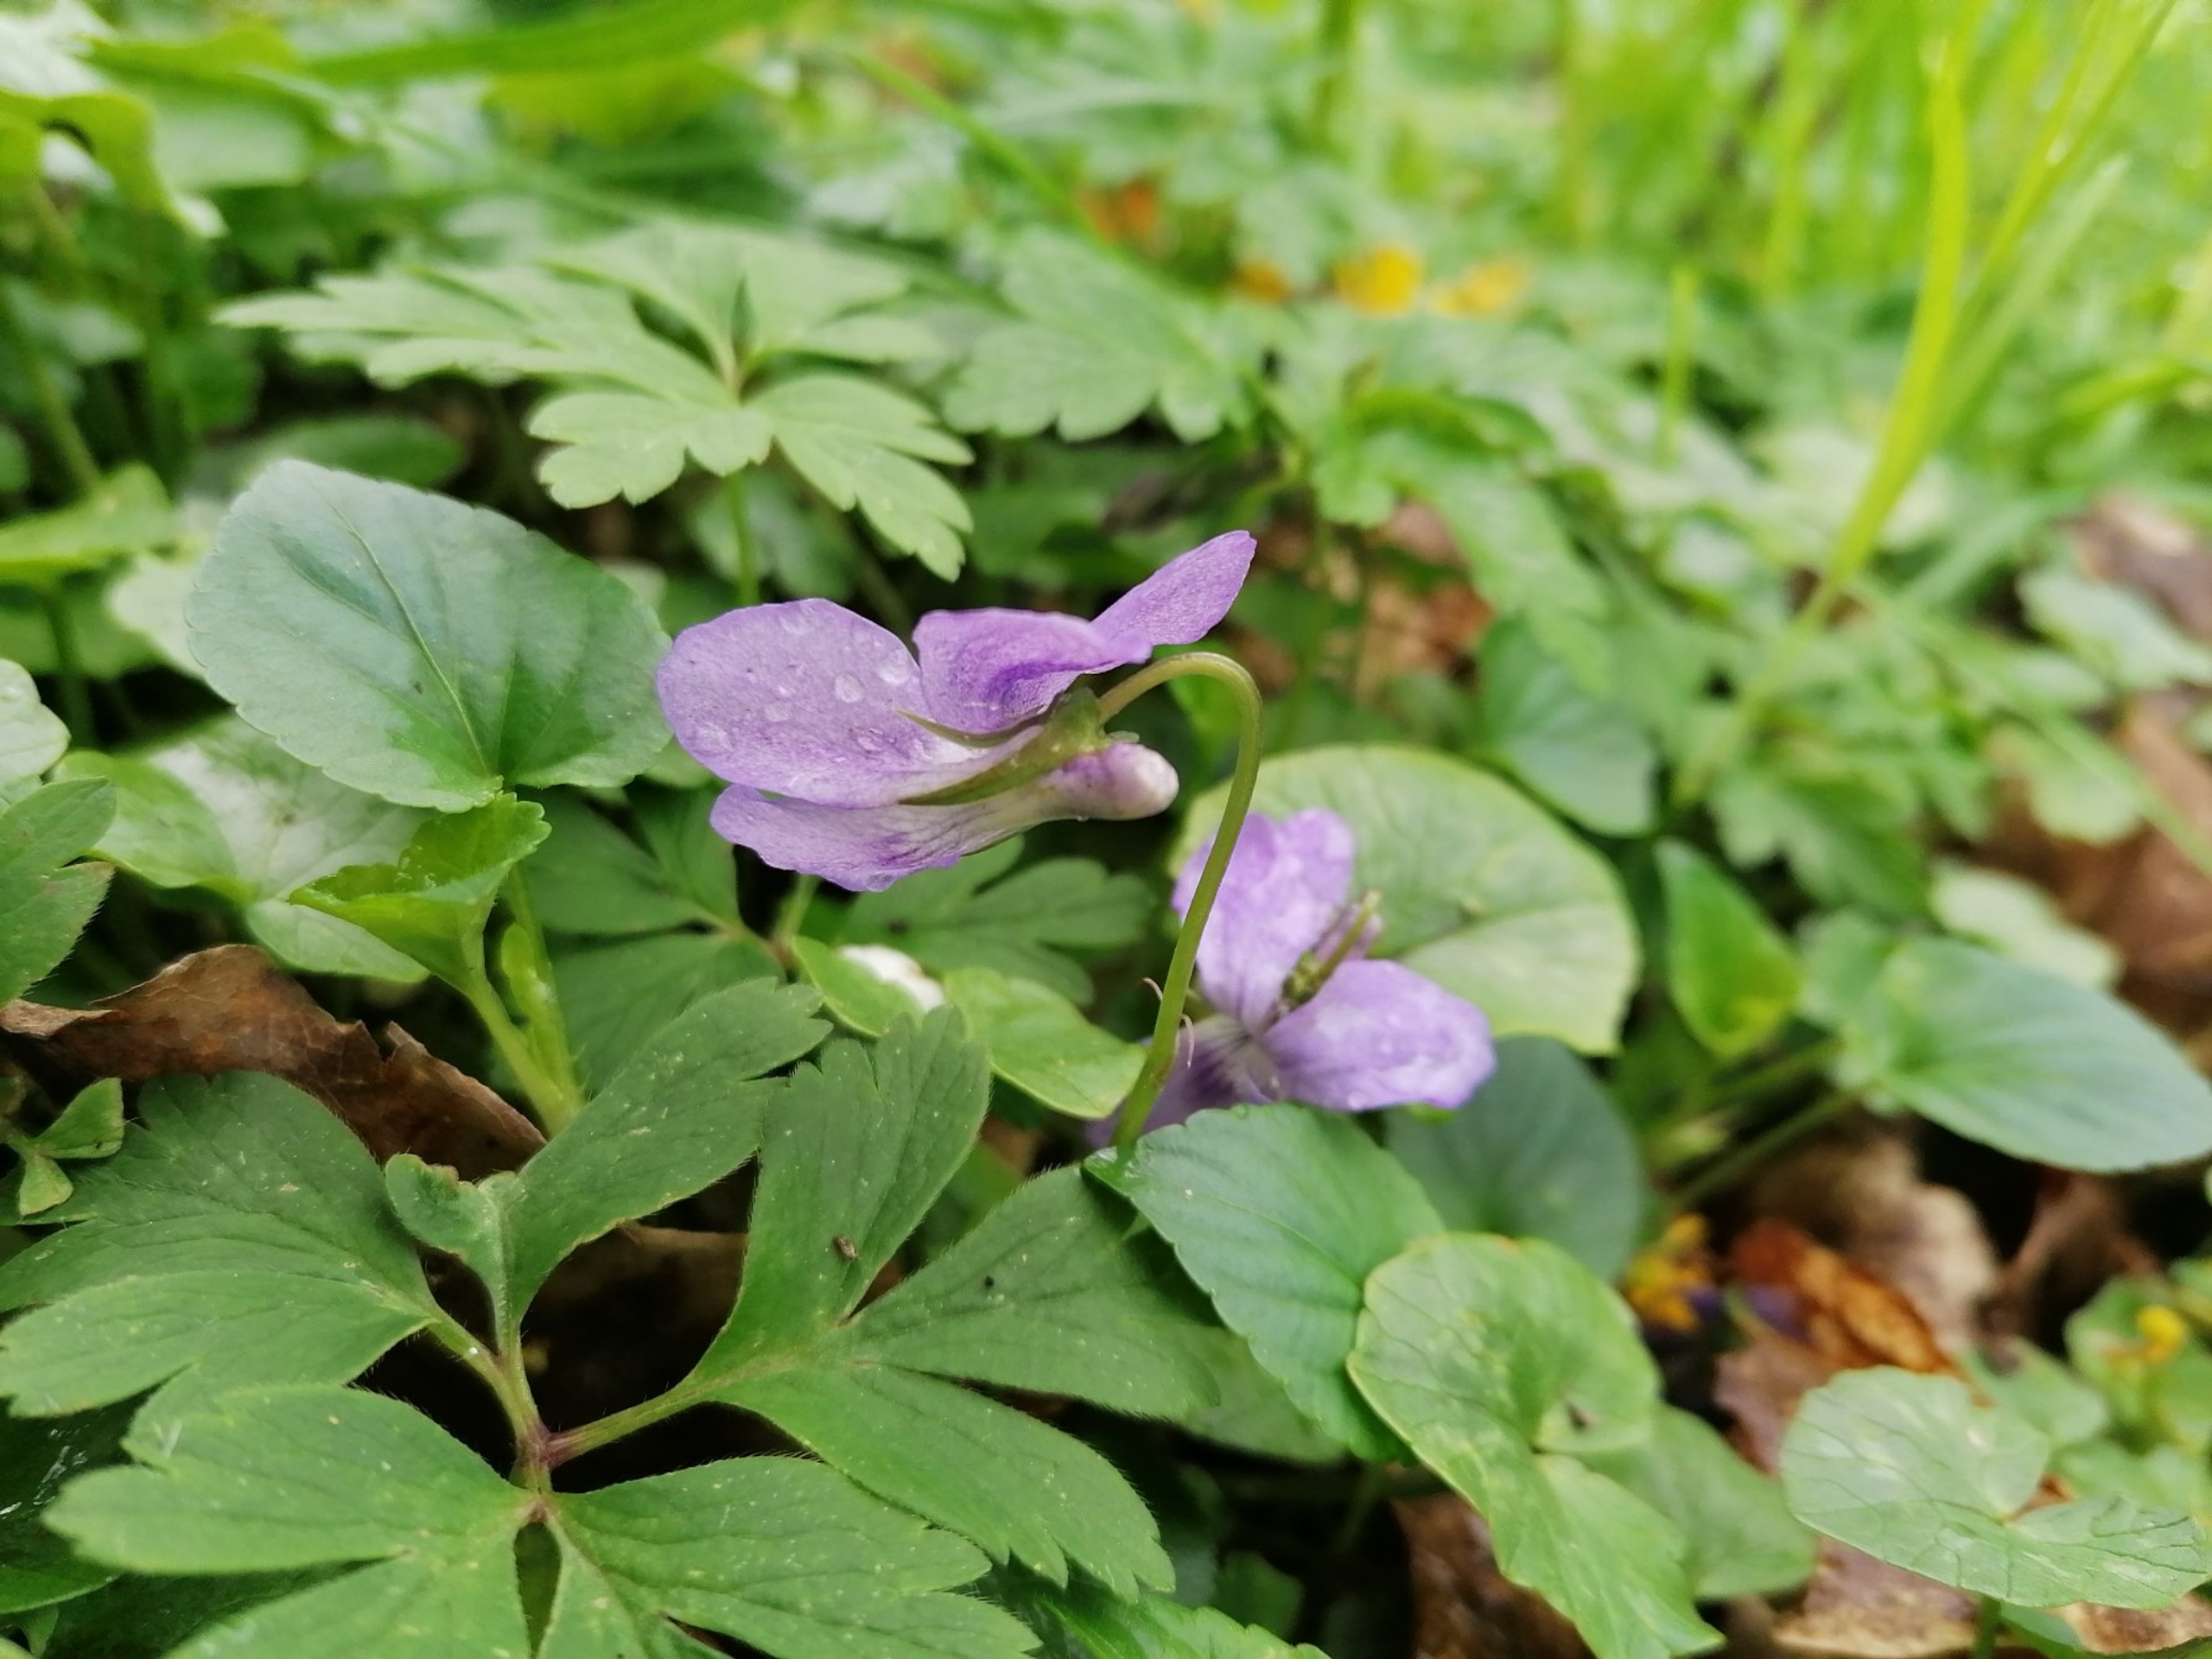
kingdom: Plantae
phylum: Tracheophyta
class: Magnoliopsida
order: Malpighiales
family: Violaceae
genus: Viola
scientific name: Viola riviniana
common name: Krat-viol
